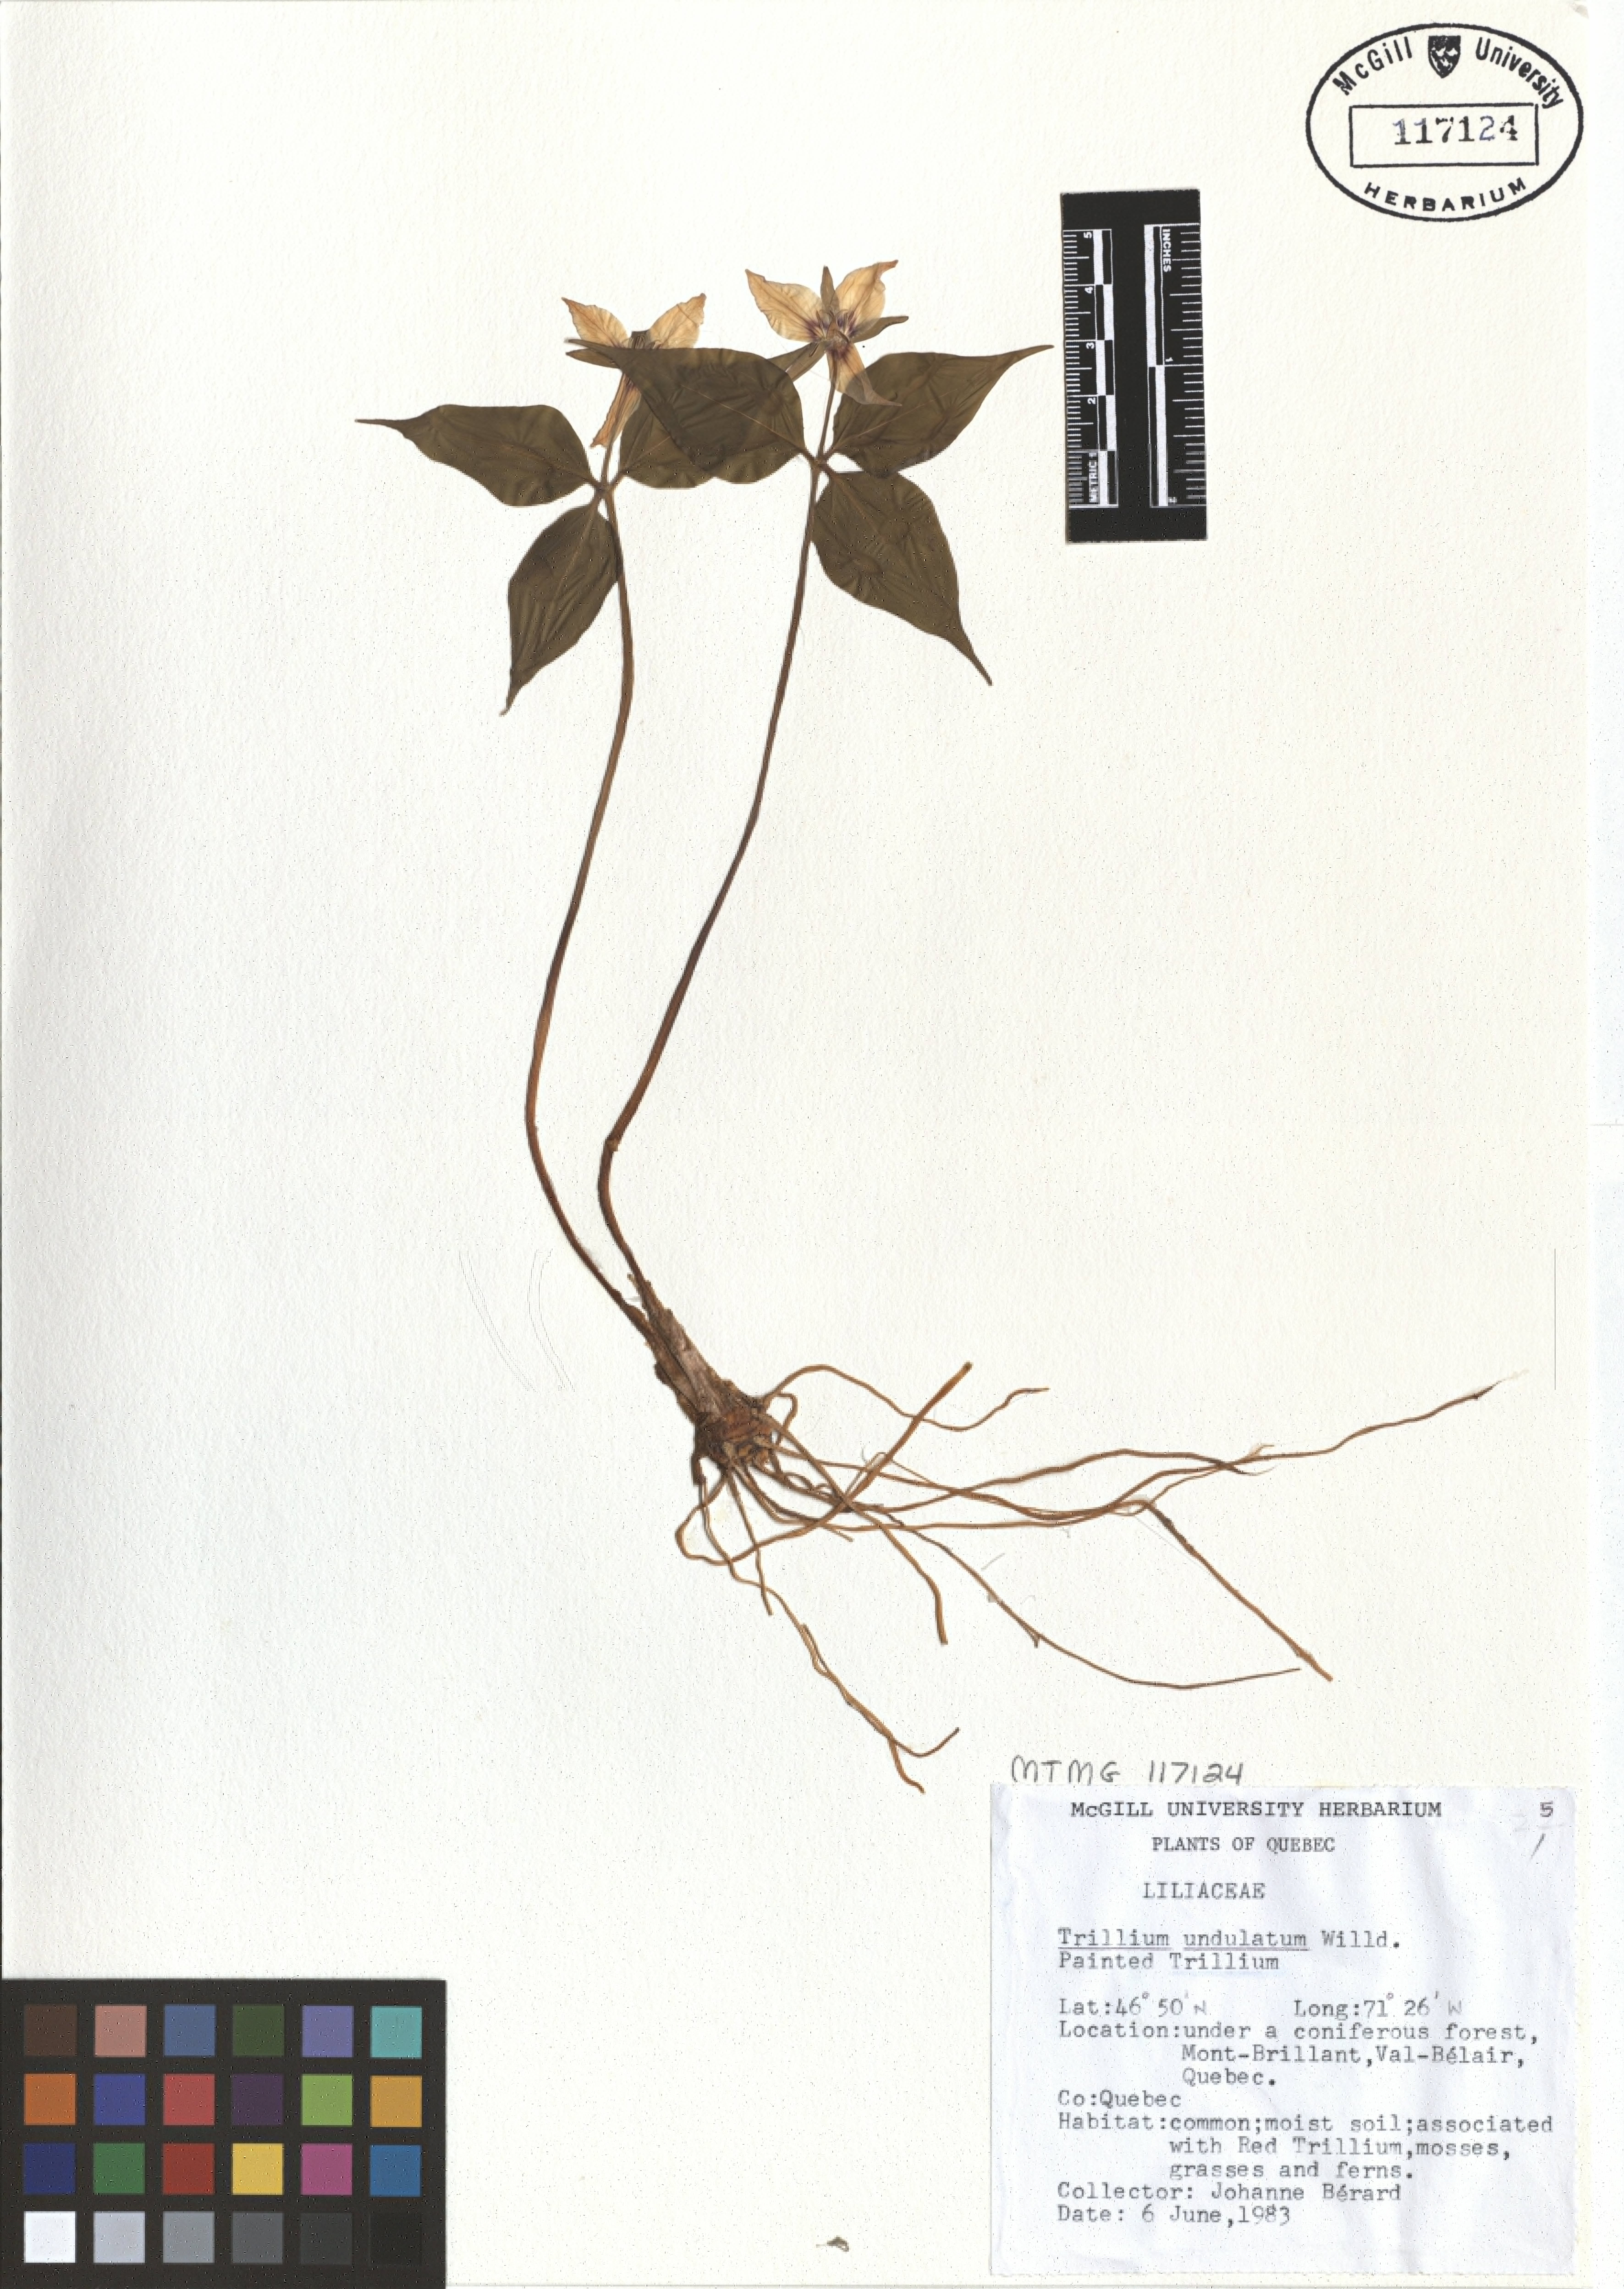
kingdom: Plantae
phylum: Tracheophyta
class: Liliopsida
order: Liliales
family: Melanthiaceae
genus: Trillium
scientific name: Trillium undulatum
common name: Paint trillium
